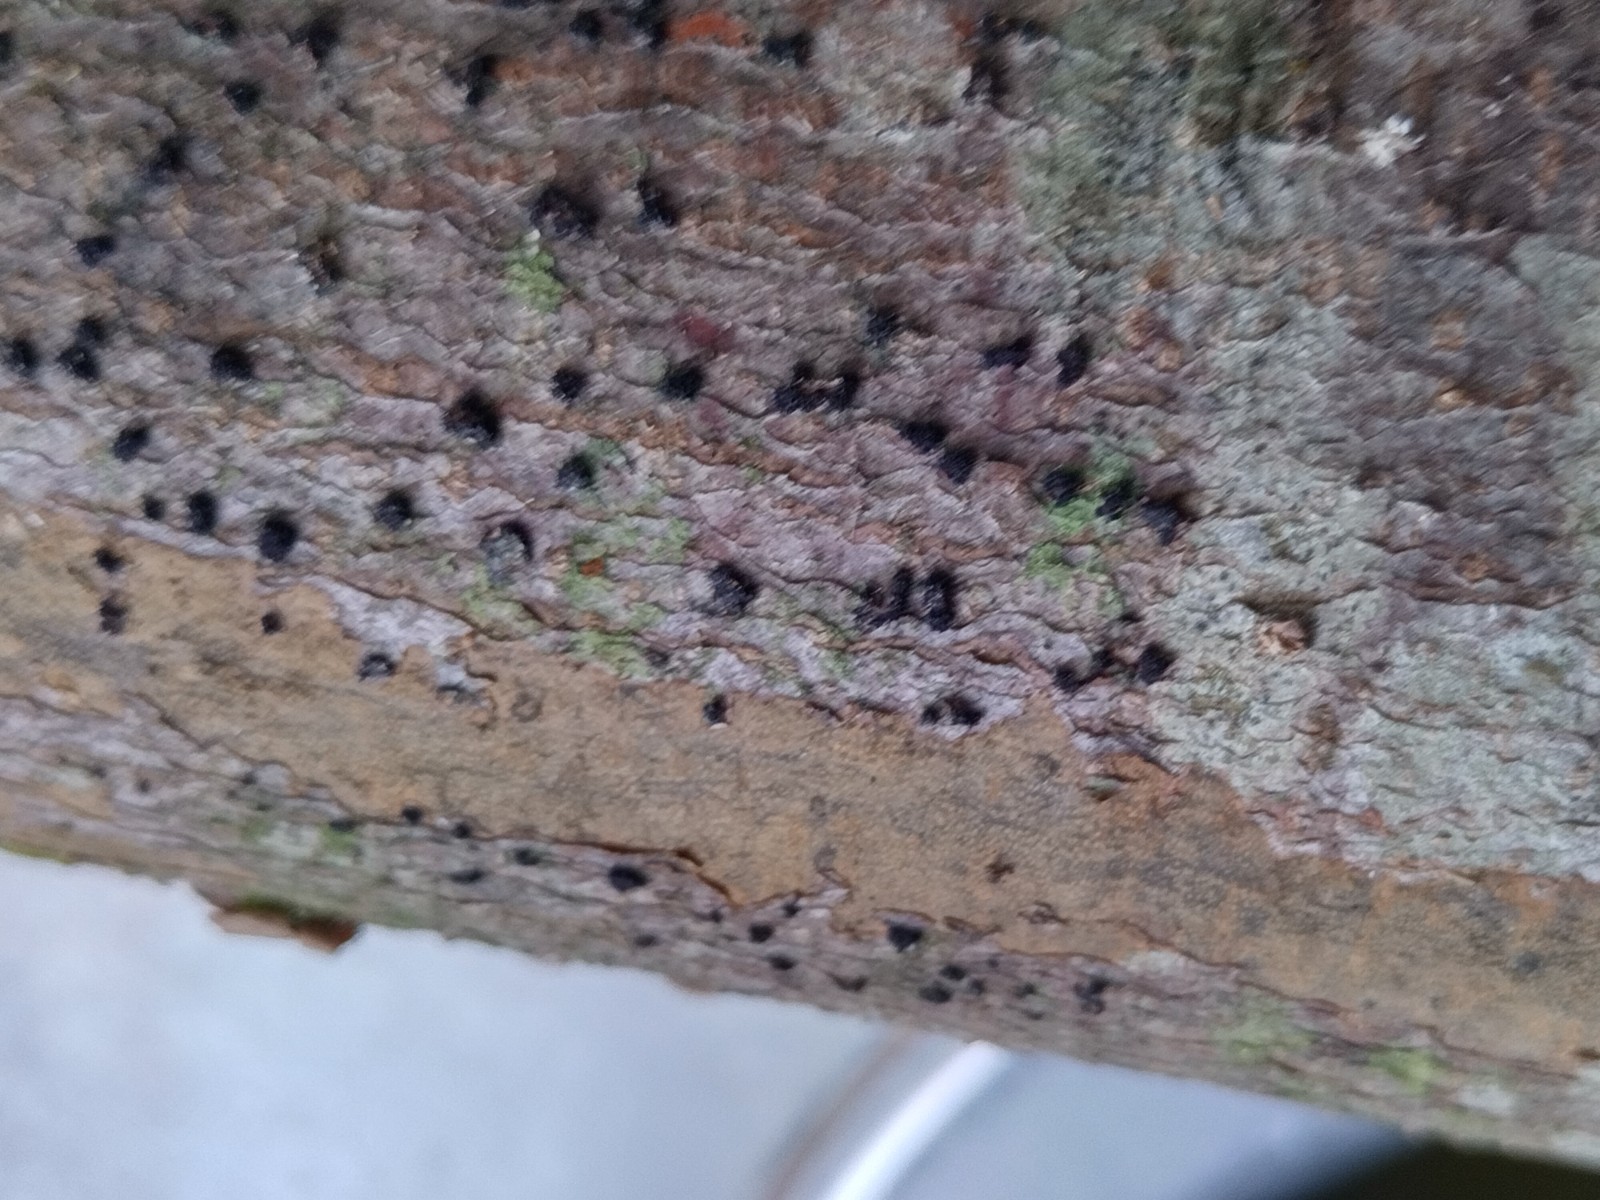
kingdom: Fungi
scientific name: Fungi
